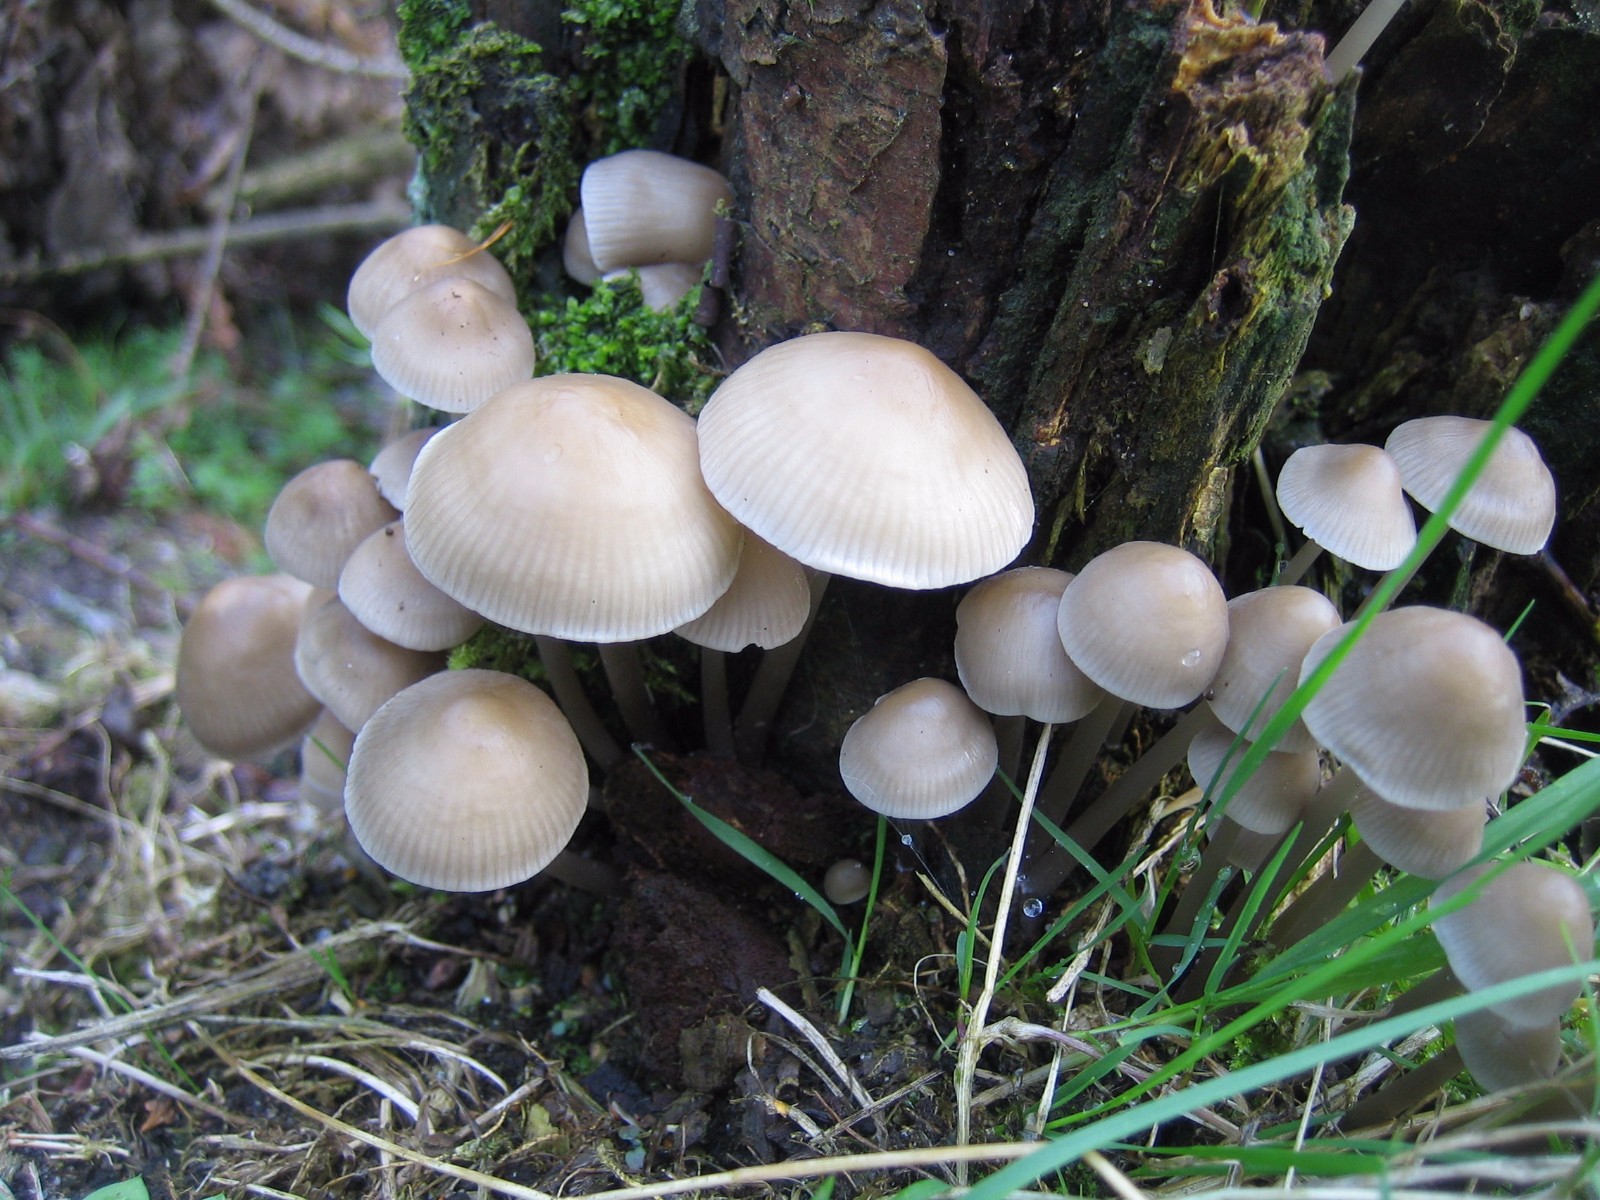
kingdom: Fungi
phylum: Basidiomycota
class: Agaricomycetes
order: Agaricales
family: Mycenaceae
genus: Mycena
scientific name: Mycena galericulata
